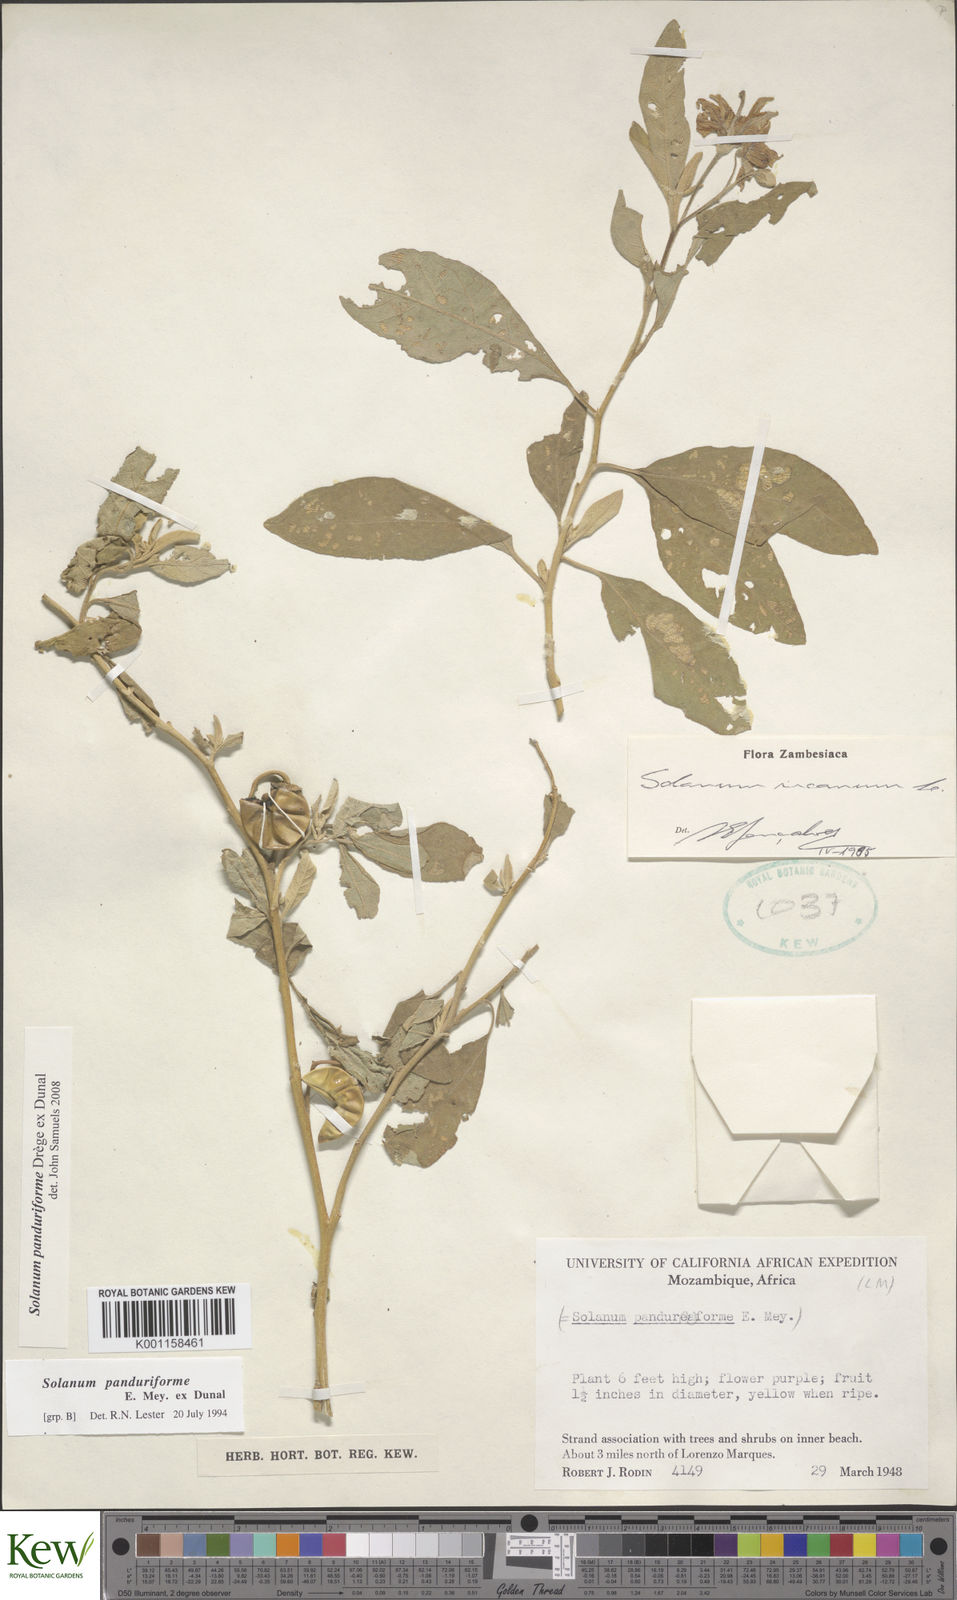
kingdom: Plantae
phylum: Tracheophyta
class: Magnoliopsida
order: Solanales
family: Solanaceae
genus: Solanum
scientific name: Solanum campylacanthum
